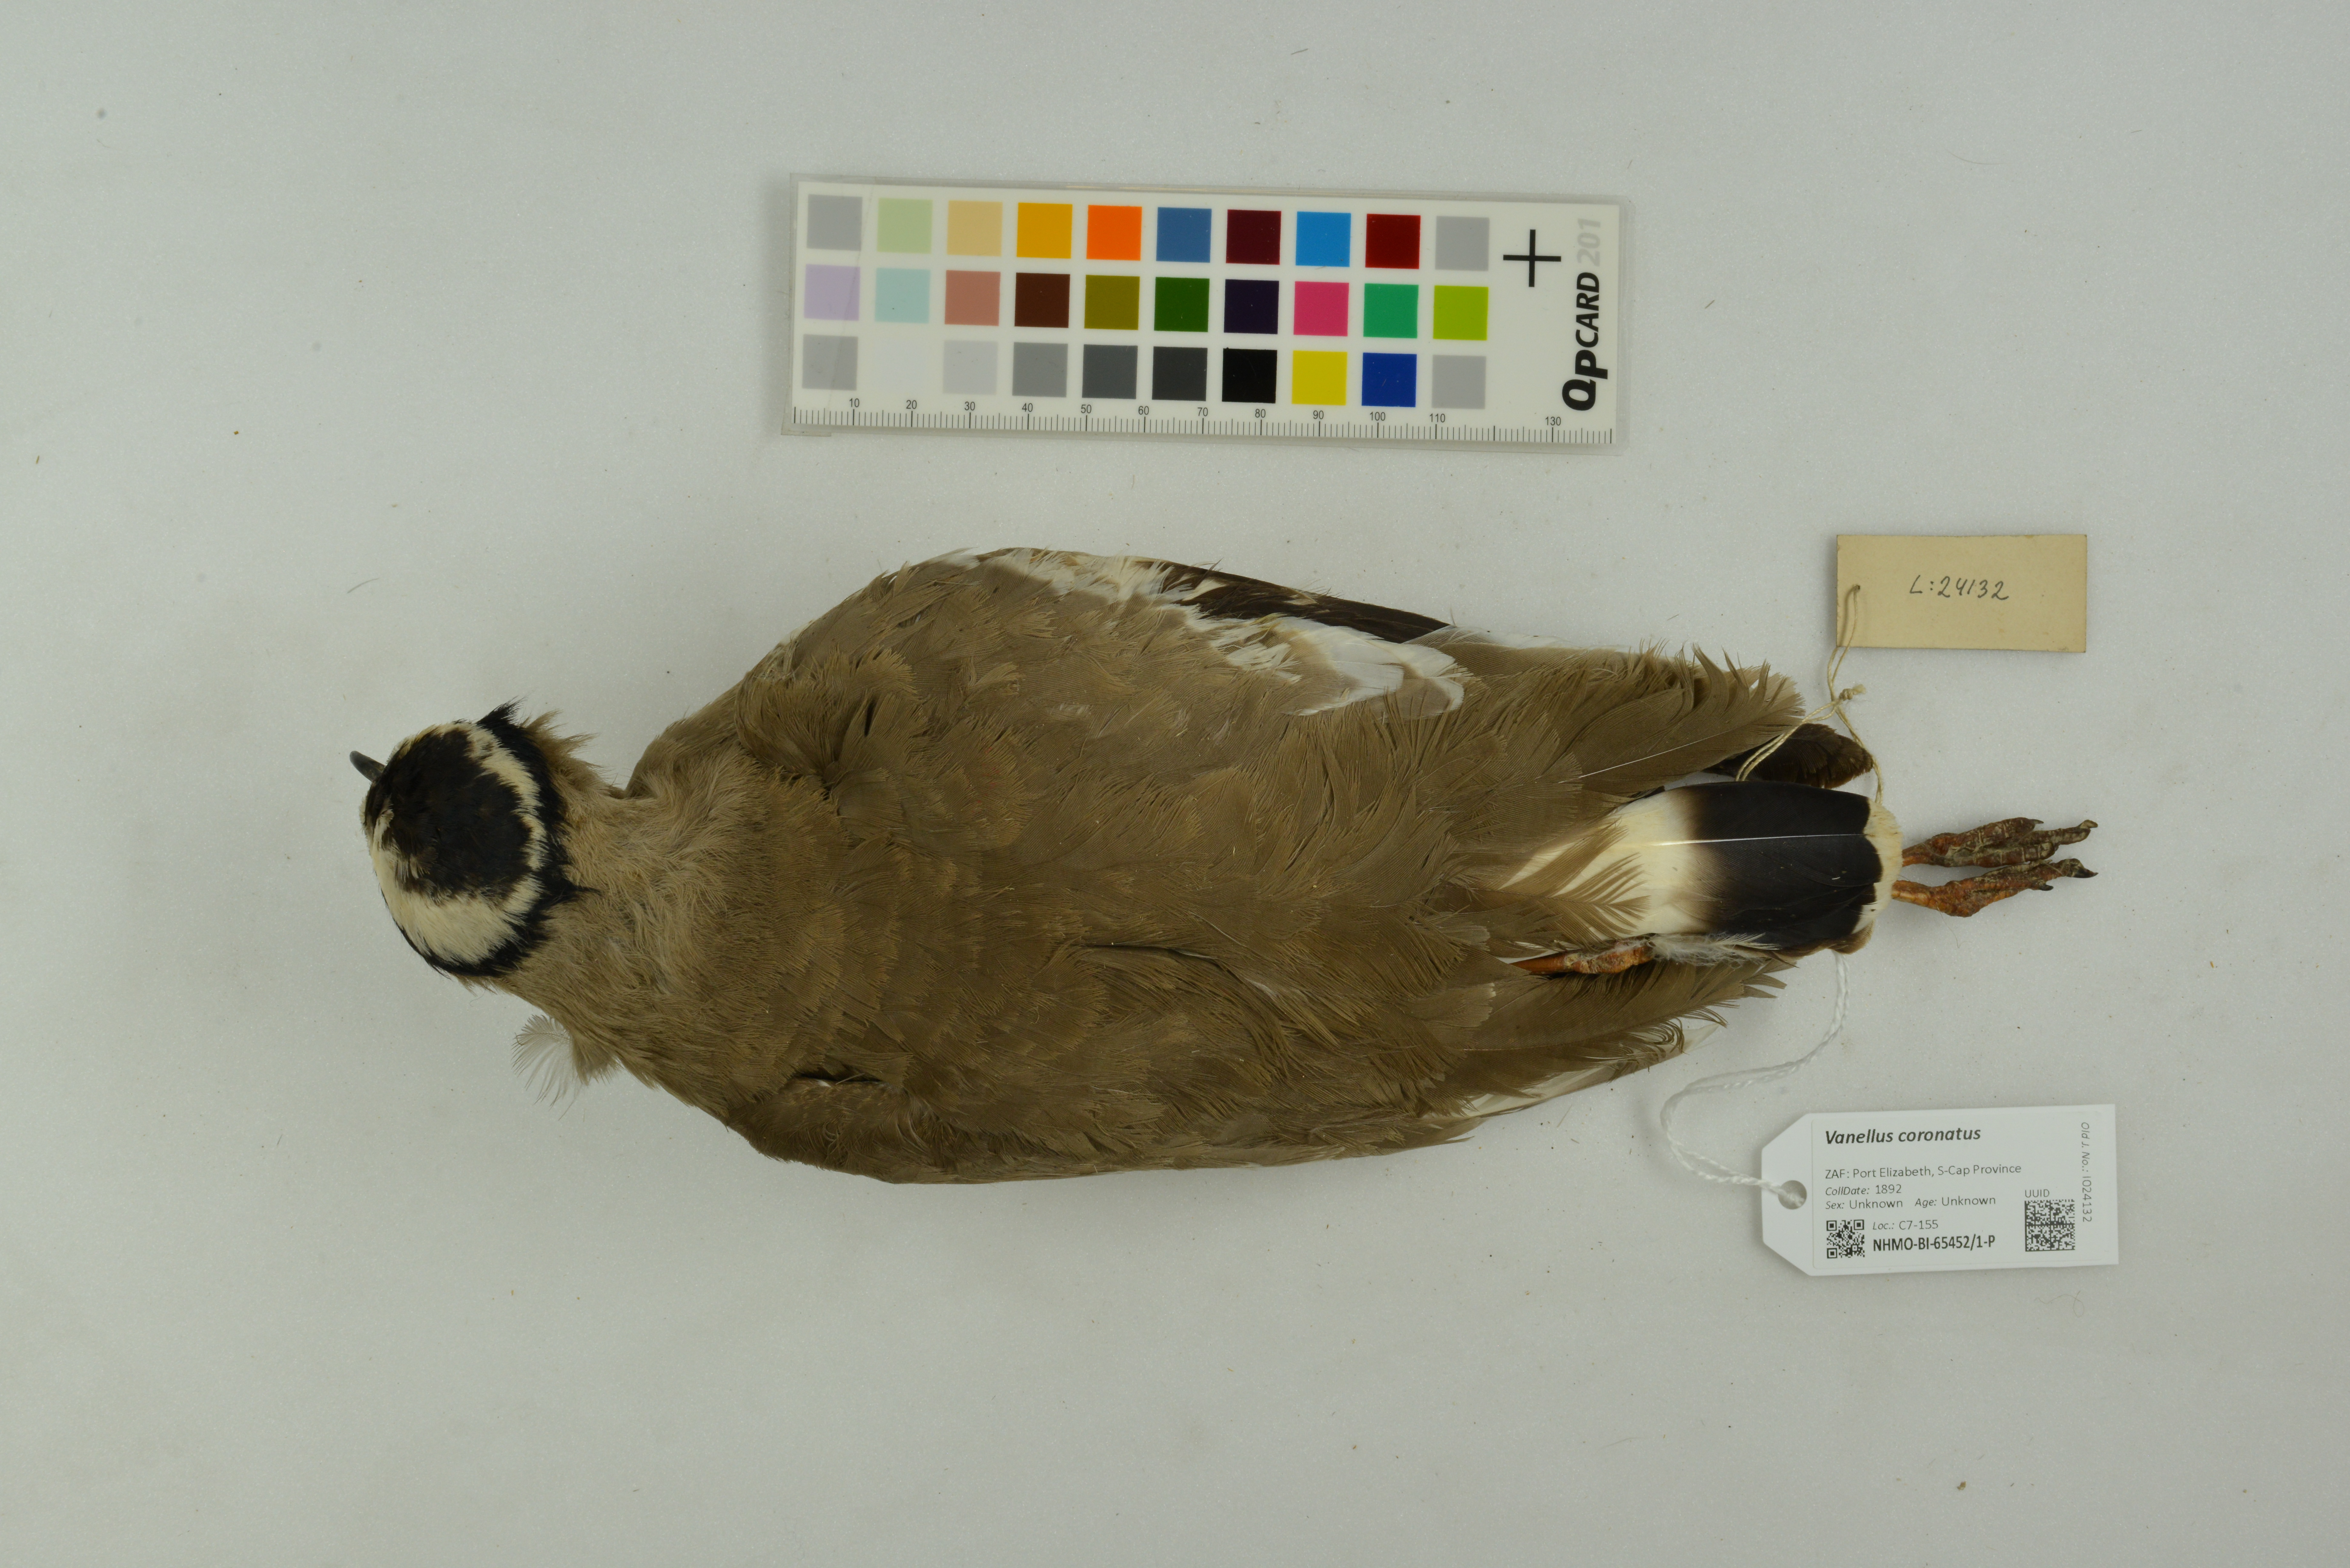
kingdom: Animalia
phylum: Chordata
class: Aves
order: Charadriiformes
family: Charadriidae
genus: Vanellus
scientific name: Vanellus coronatus
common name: Crowned lapwing
